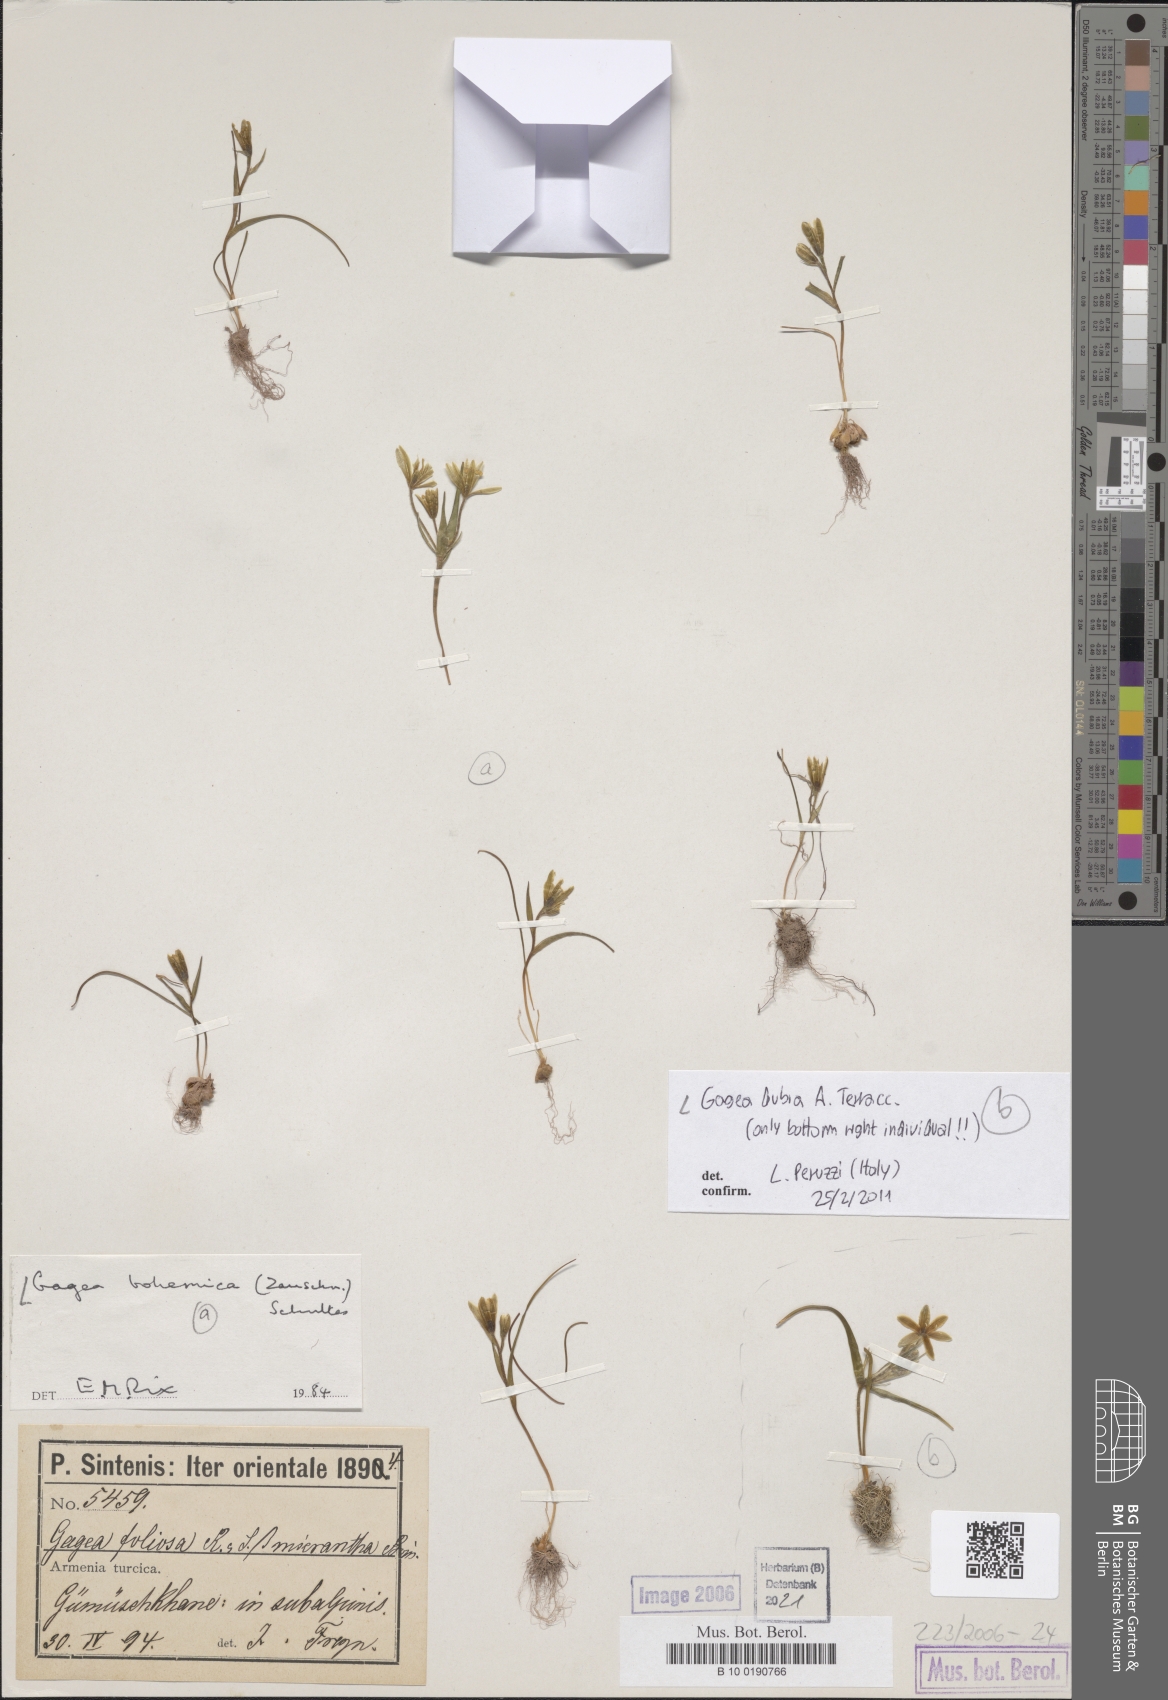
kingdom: Plantae
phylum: Tracheophyta
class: Liliopsida
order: Liliales
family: Liliaceae
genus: Gagea
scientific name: Gagea dubia
